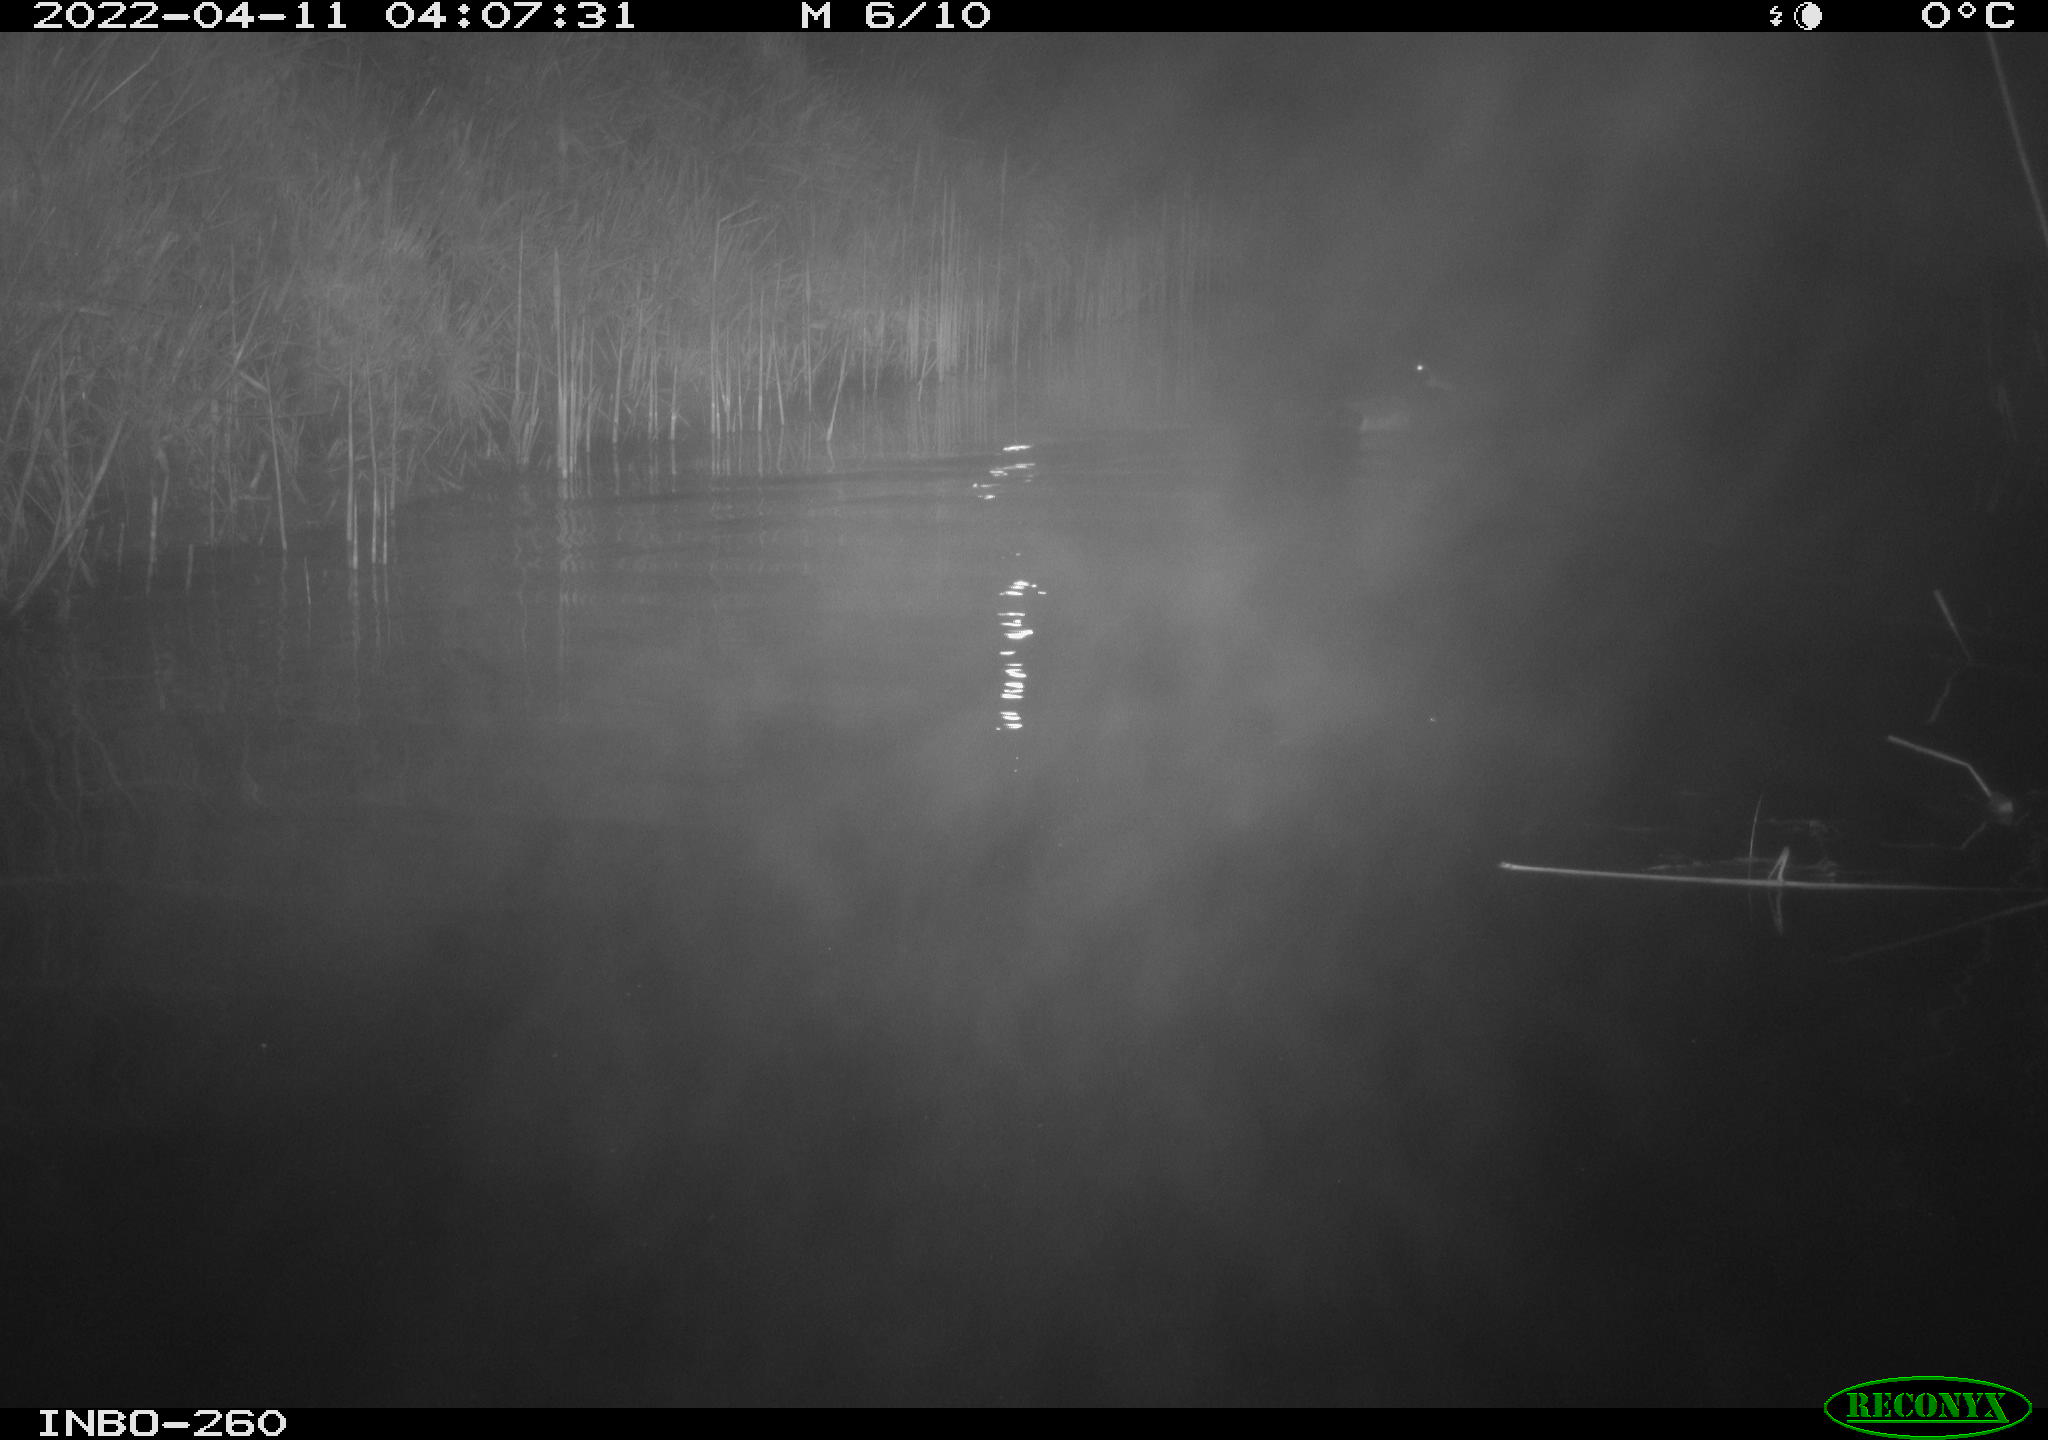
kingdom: Animalia
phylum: Chordata
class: Aves
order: Anseriformes
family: Anatidae
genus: Anas
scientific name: Anas platyrhynchos
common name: Mallard
